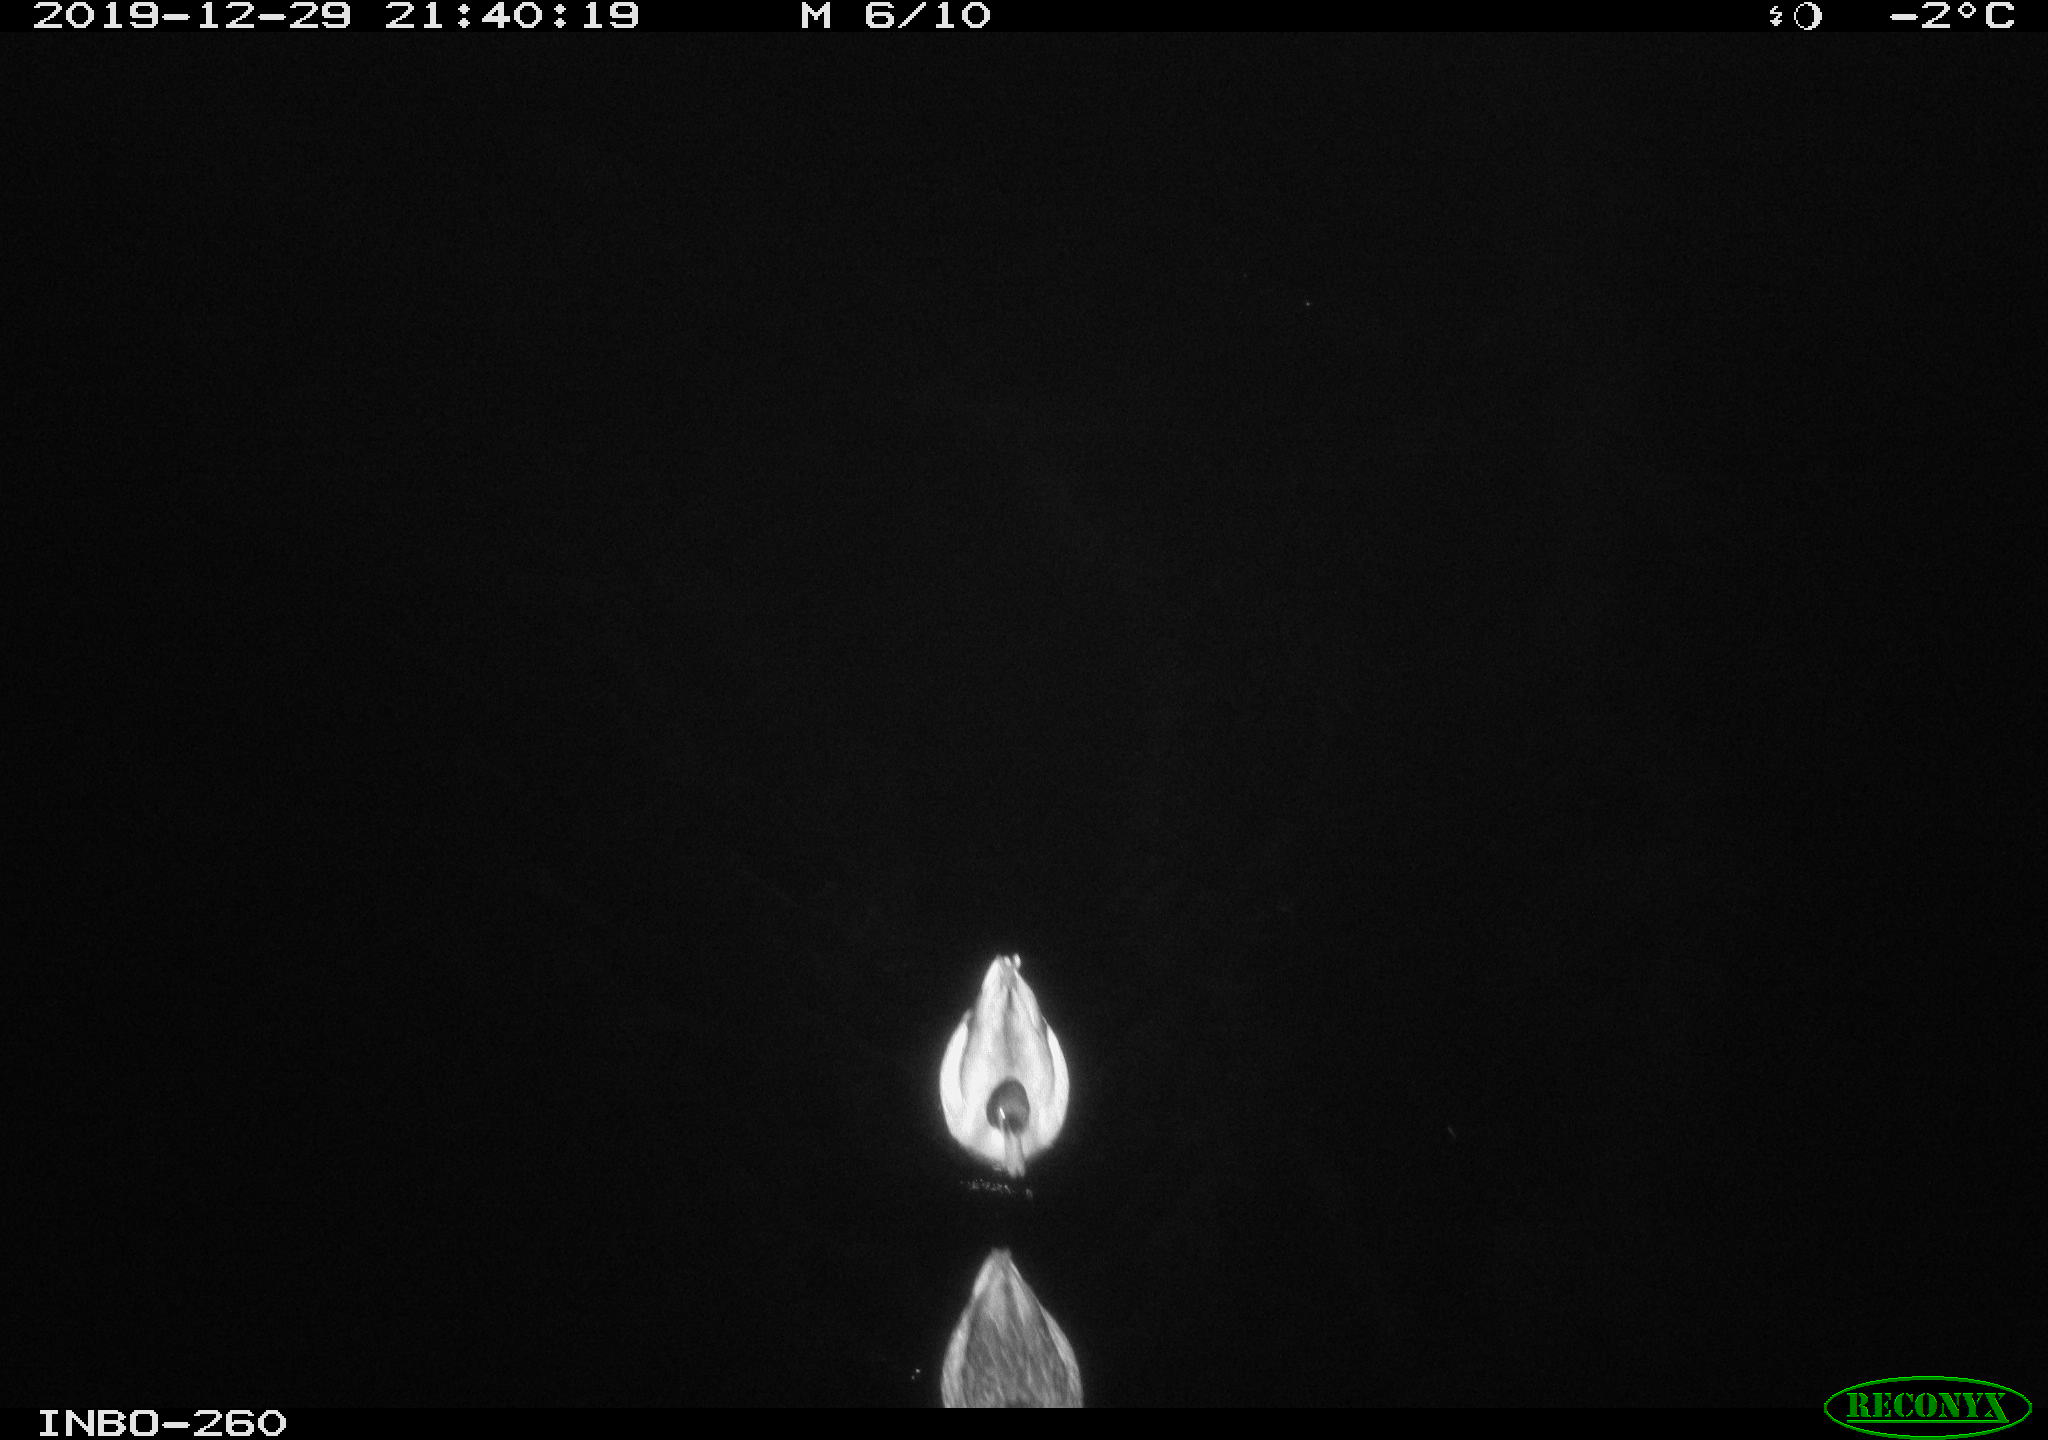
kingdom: Animalia
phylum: Chordata
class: Aves
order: Anseriformes
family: Anatidae
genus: Anas
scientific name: Anas platyrhynchos
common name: Mallard
